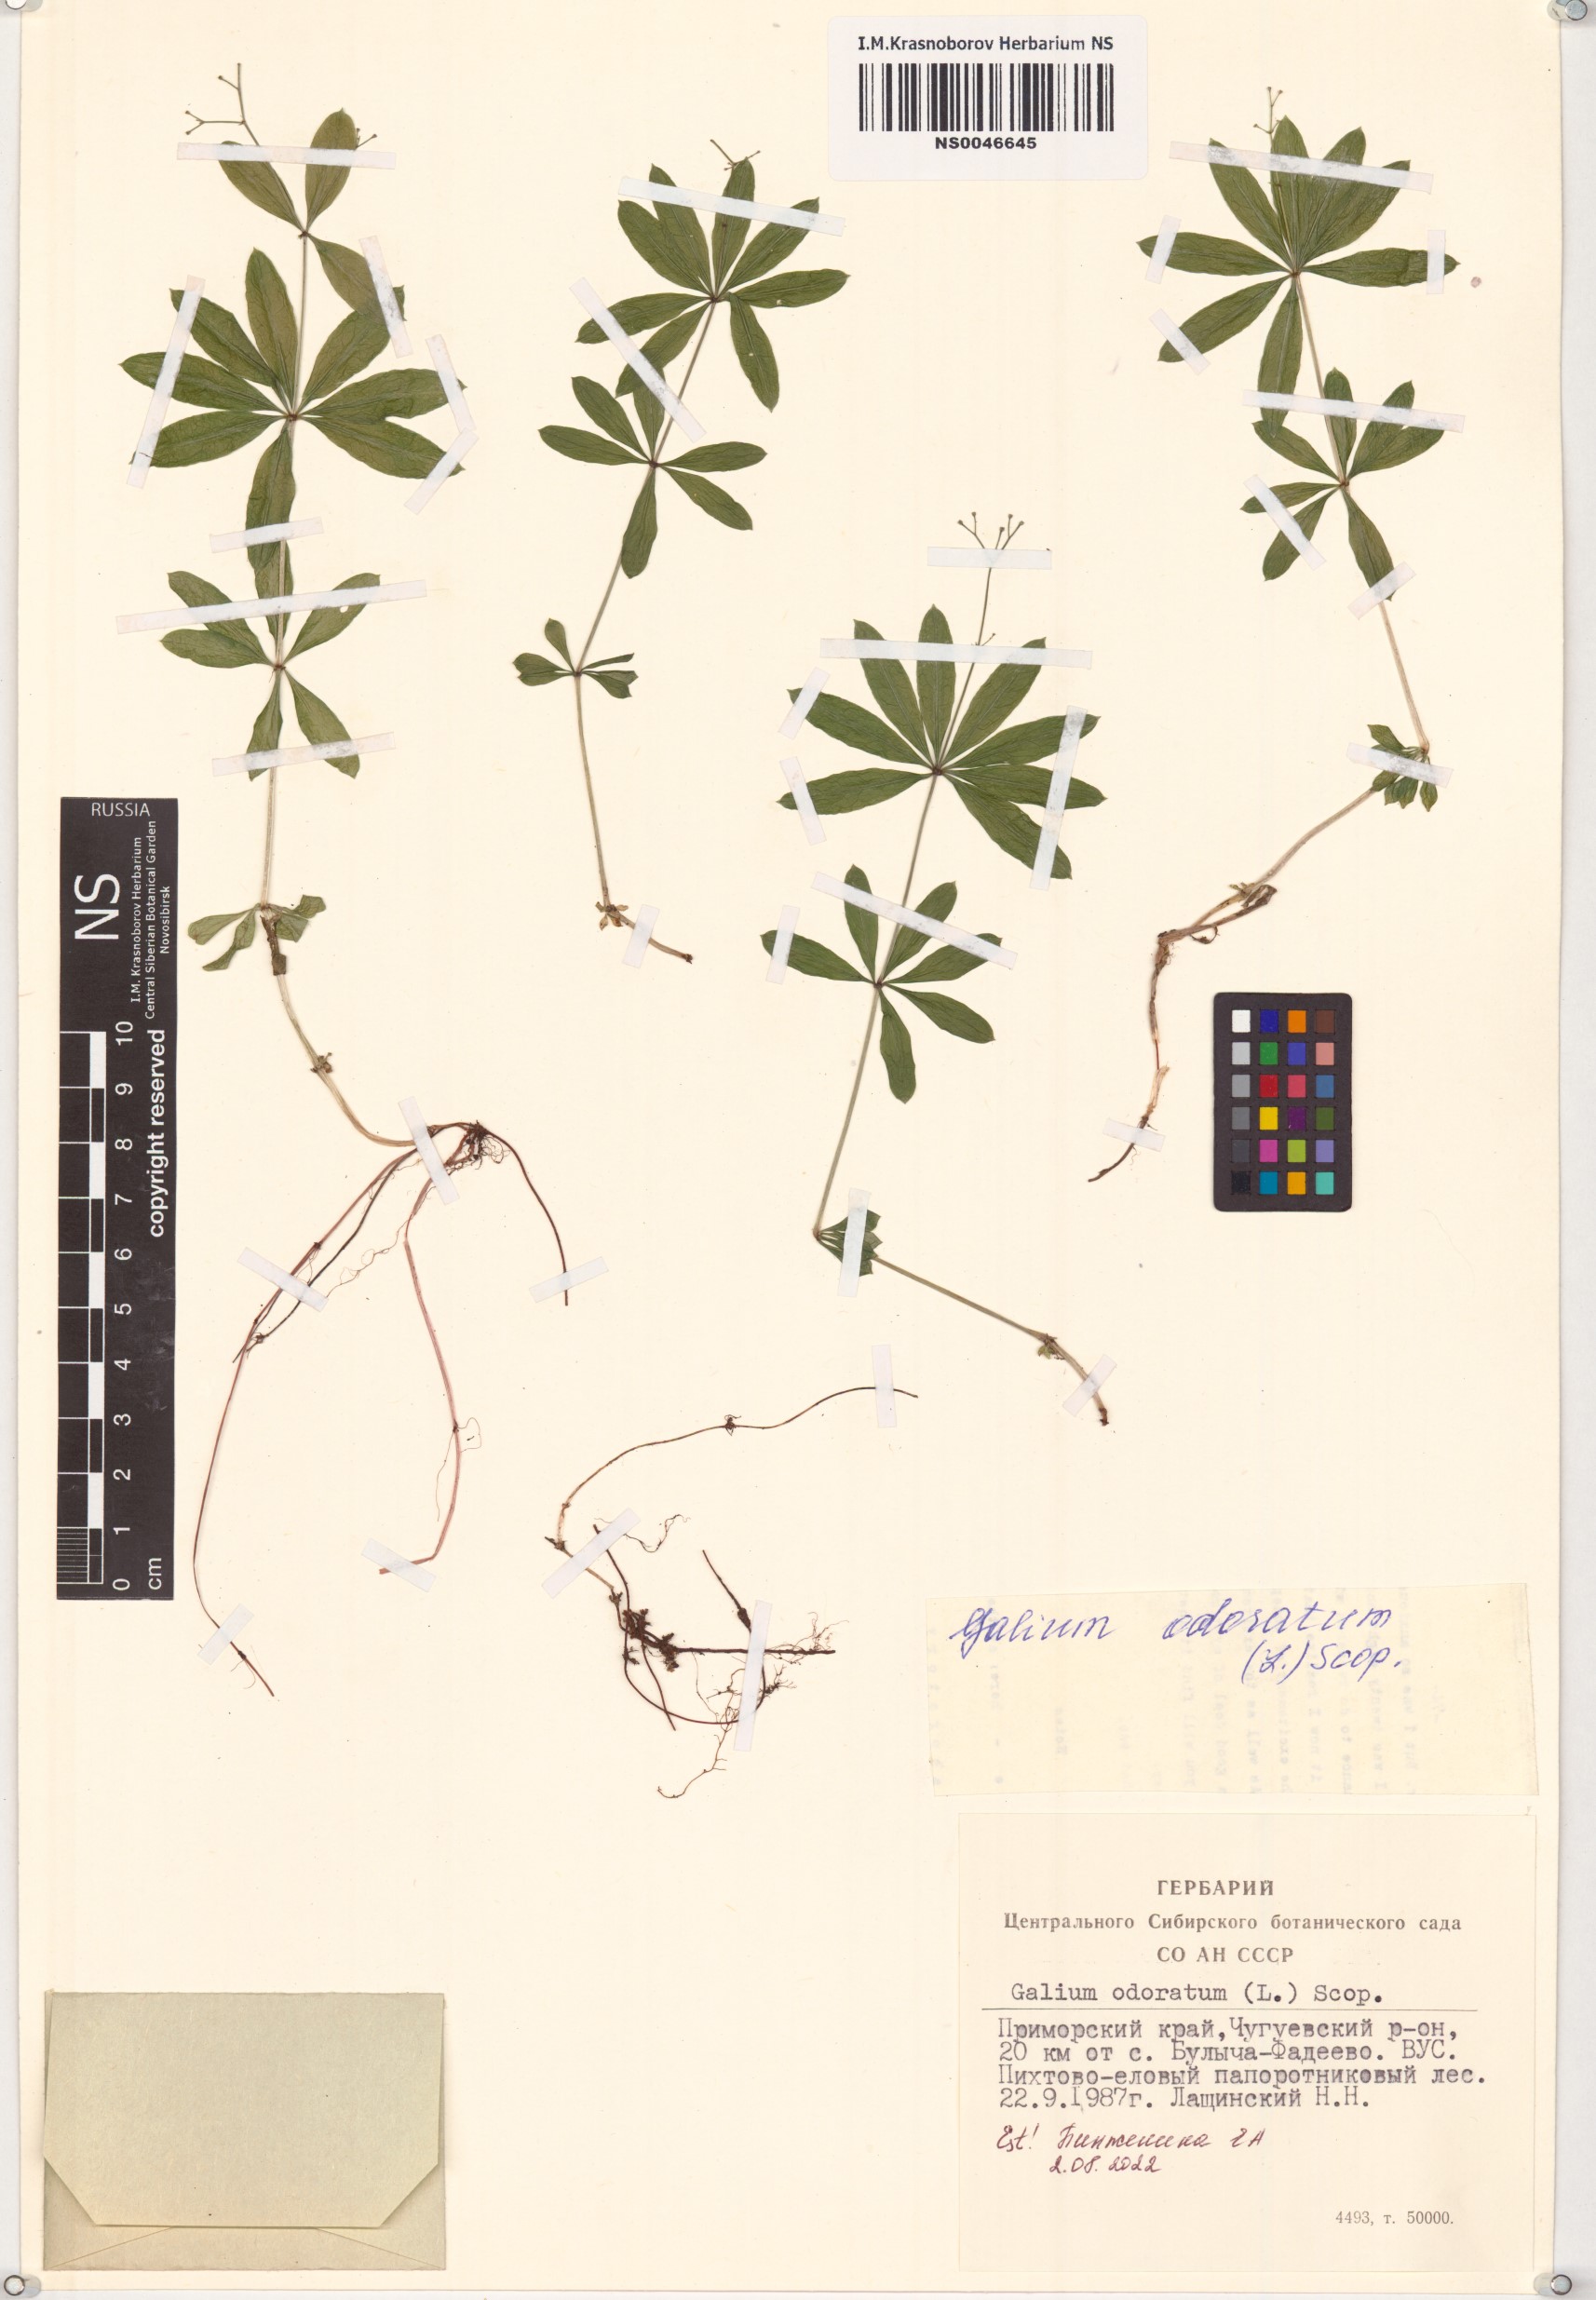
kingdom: Plantae
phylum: Tracheophyta
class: Magnoliopsida
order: Gentianales
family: Rubiaceae
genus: Galium
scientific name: Galium odoratum
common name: Sweet woodruff
